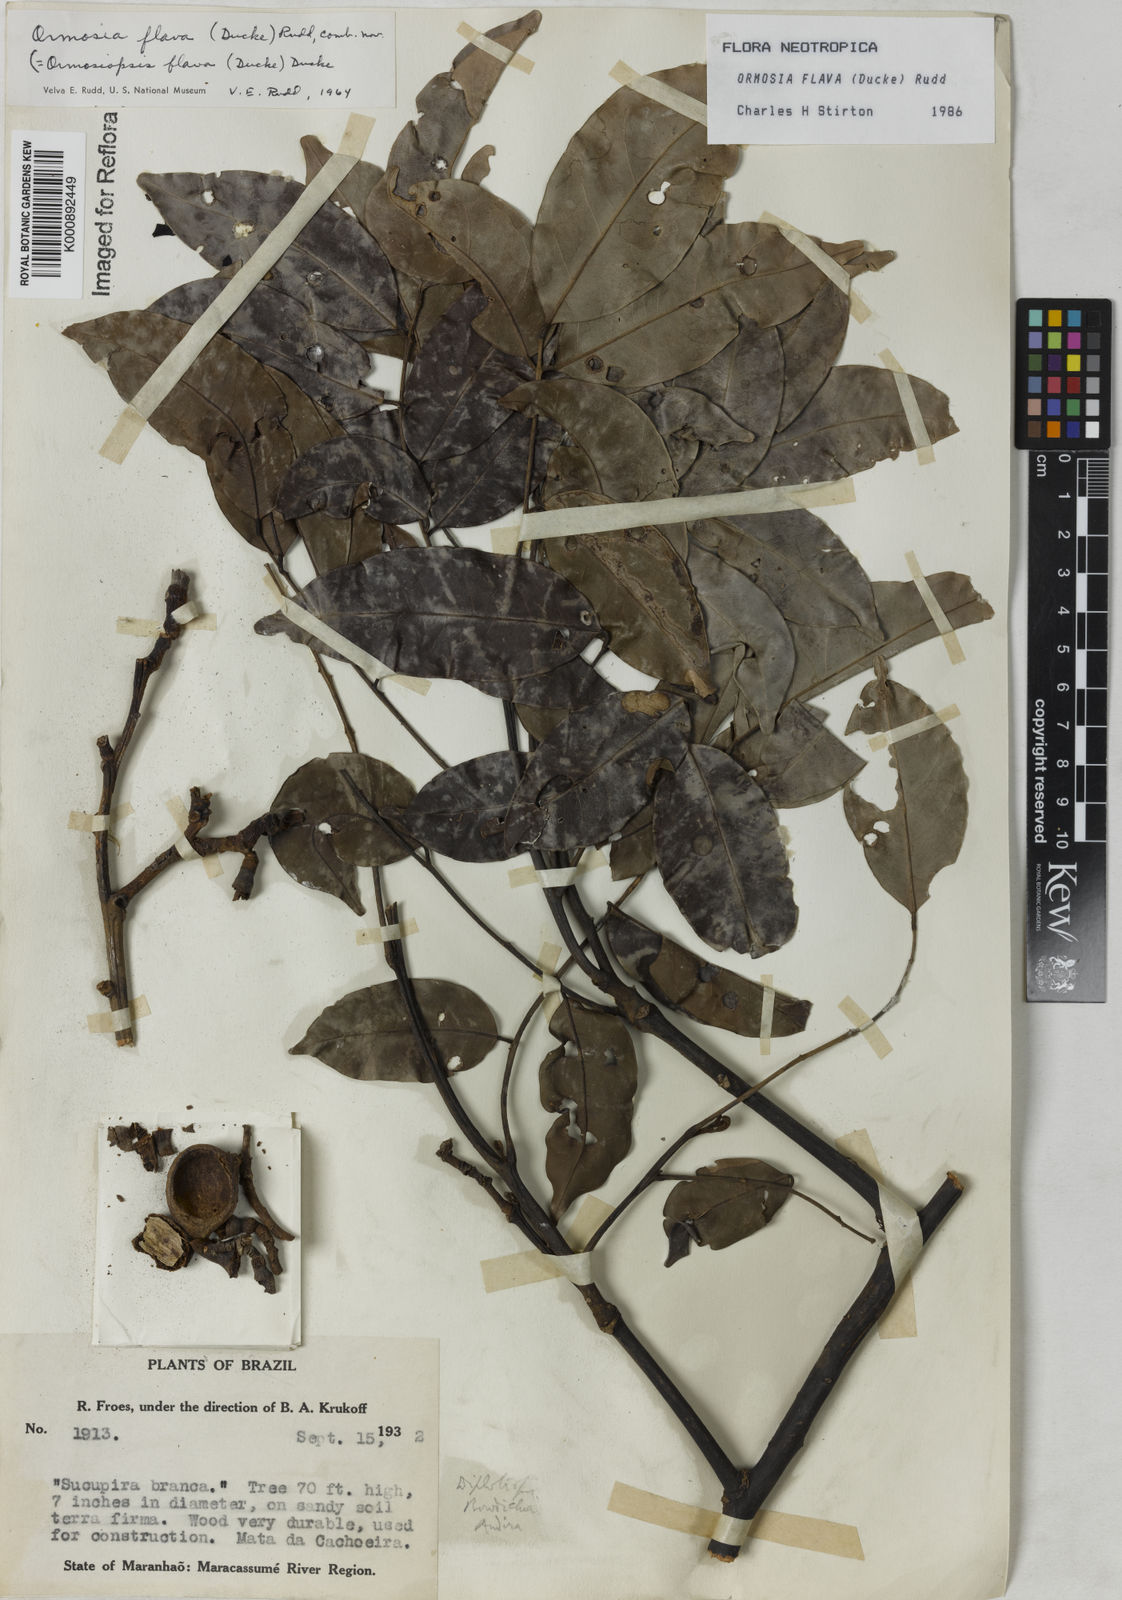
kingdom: Plantae
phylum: Tracheophyta
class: Magnoliopsida
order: Fabales
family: Fabaceae
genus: Ormosia
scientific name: Ormosia flava
